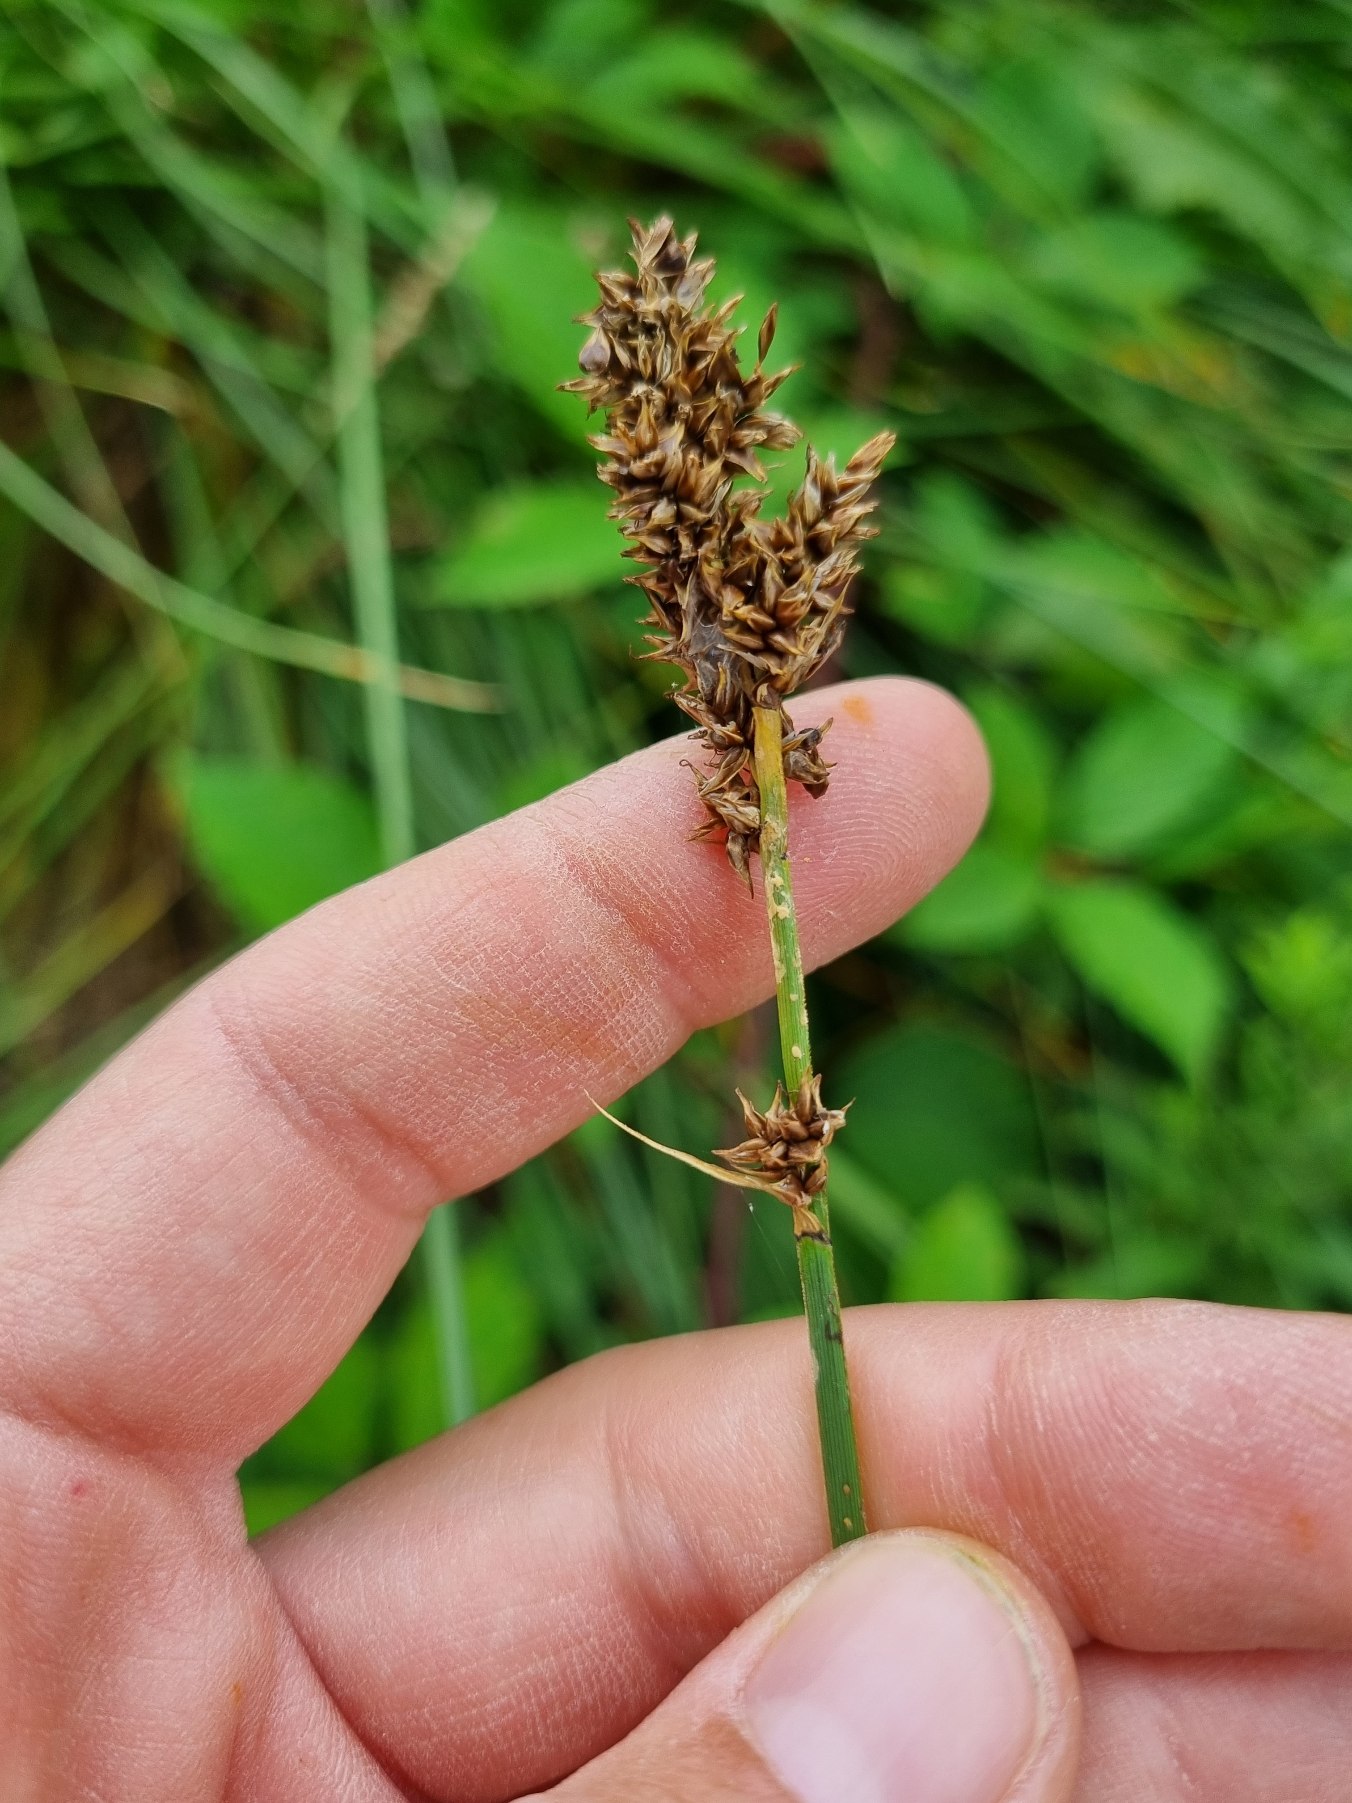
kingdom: Plantae
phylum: Tracheophyta
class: Liliopsida
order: Poales
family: Cyperaceae
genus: Carex
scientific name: Carex paniculata
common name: Top-star
